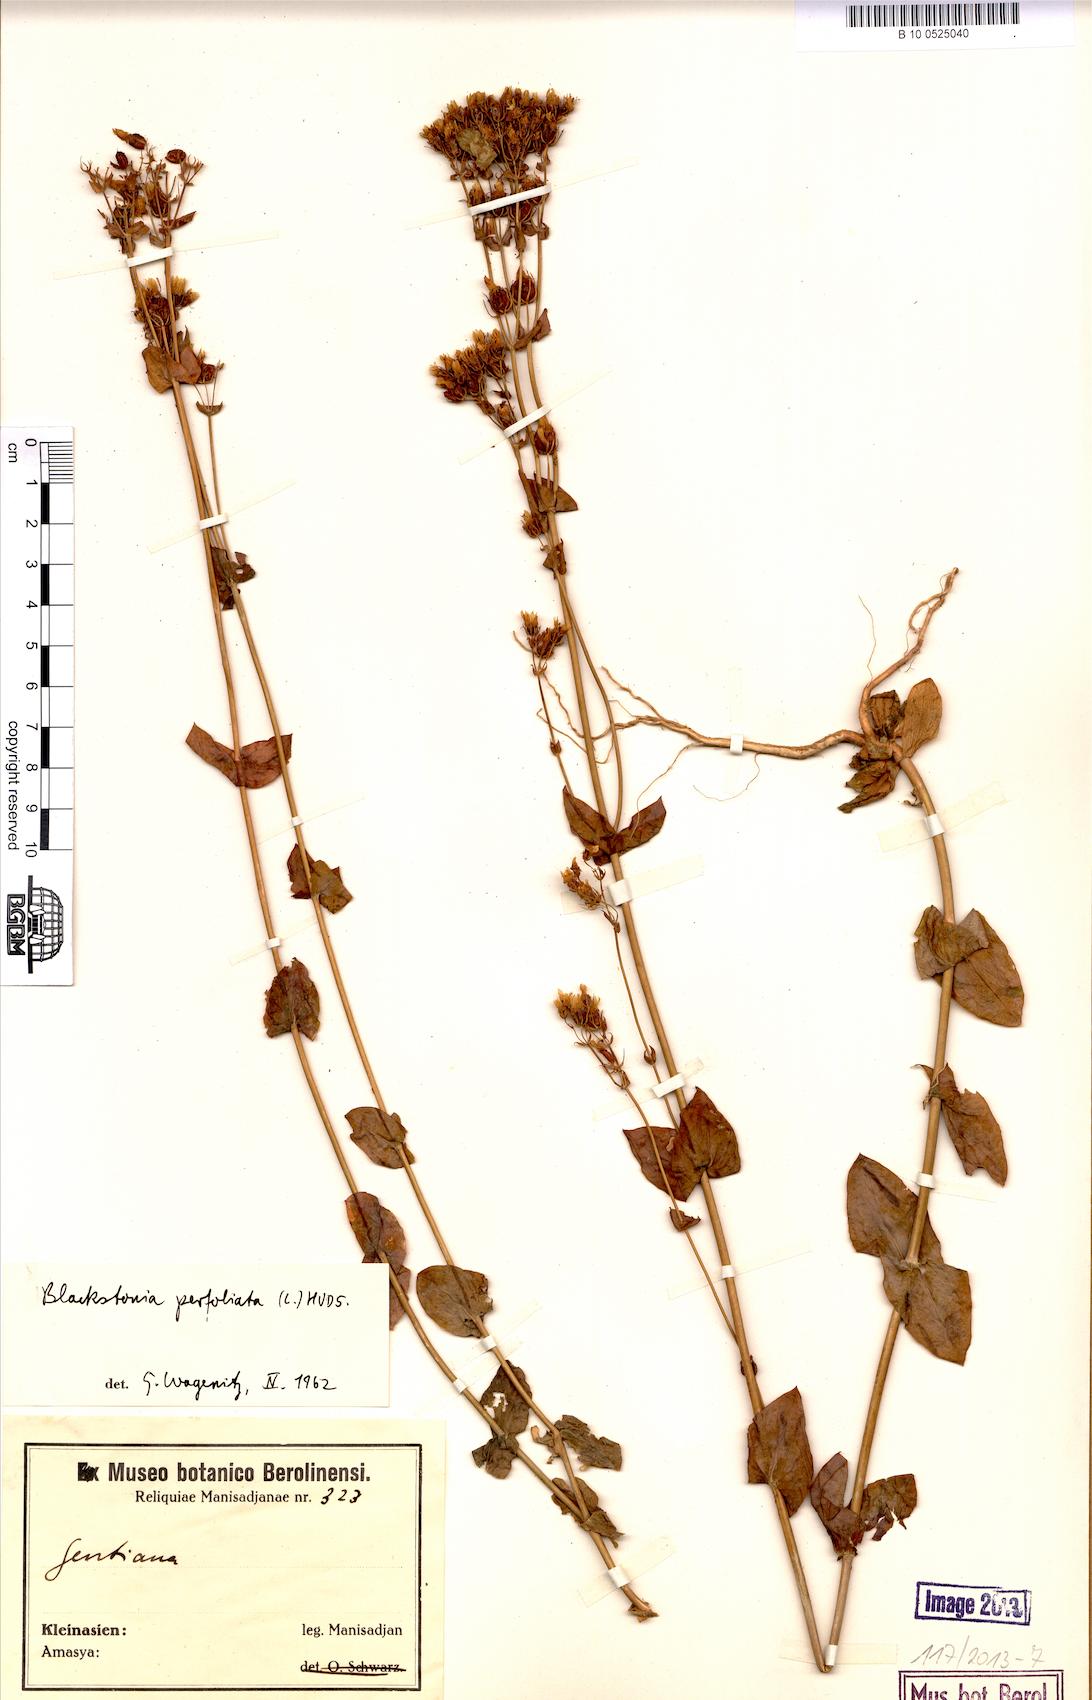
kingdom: Plantae
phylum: Tracheophyta
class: Magnoliopsida
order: Gentianales
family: Gentianaceae
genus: Blackstonia
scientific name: Blackstonia perfoliata
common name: Yellow-wort
